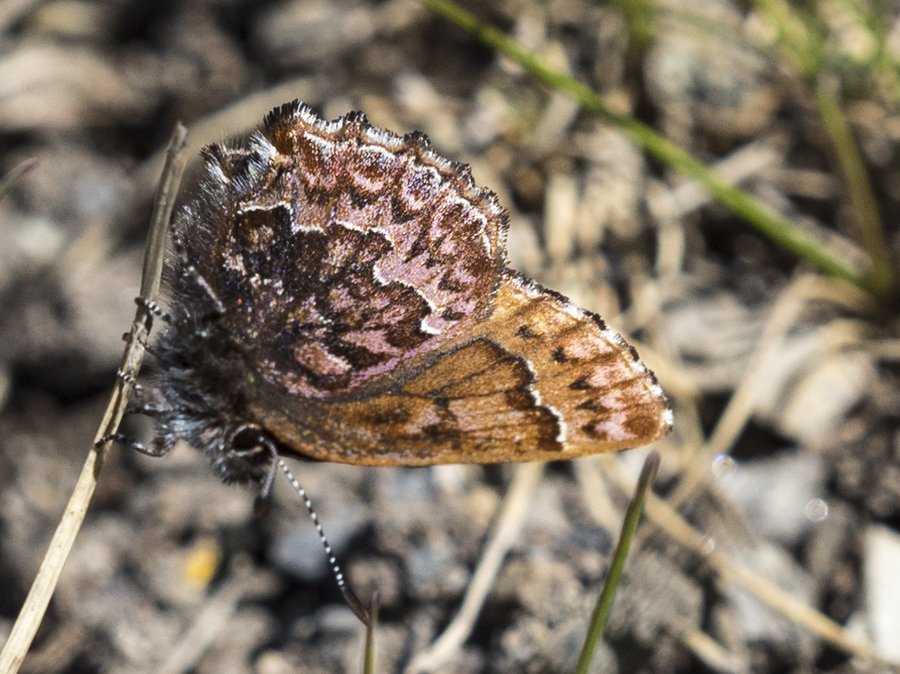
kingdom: Animalia
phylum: Arthropoda
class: Insecta
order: Lepidoptera
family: Lycaenidae
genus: Incisalia
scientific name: Incisalia eryphon
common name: Western Pine Elfin
